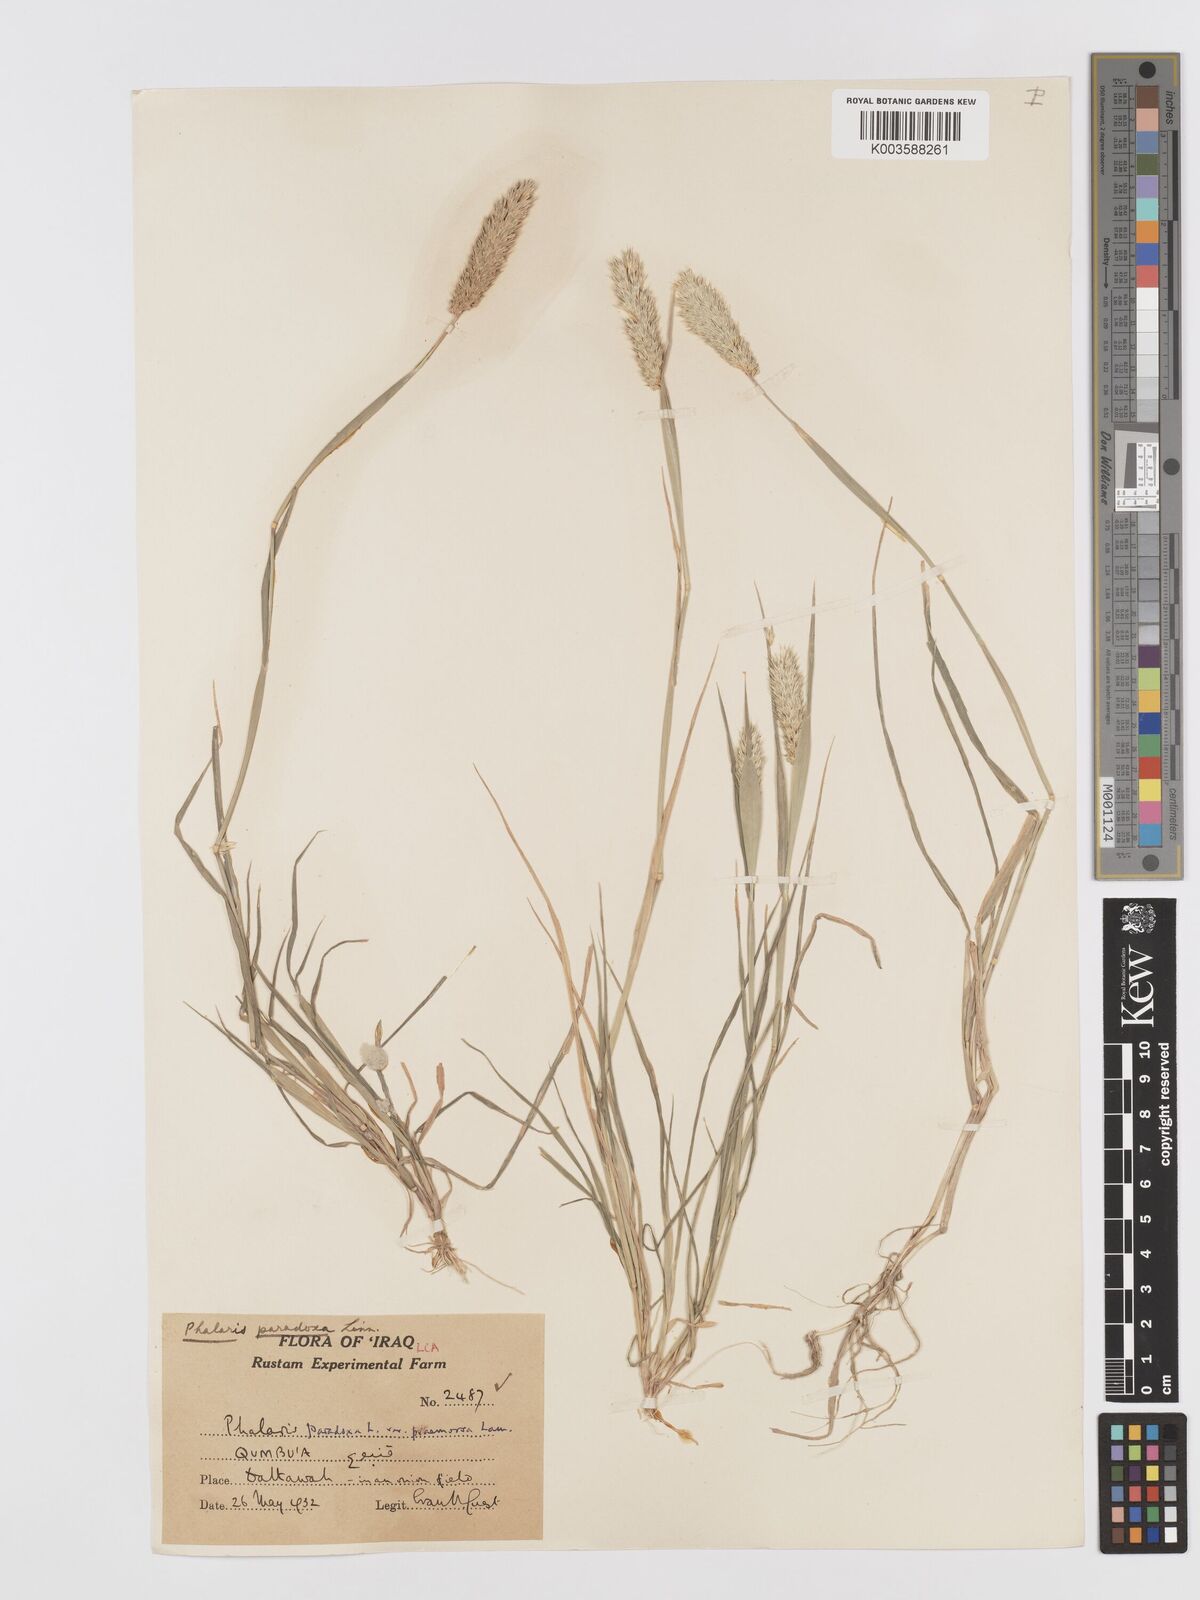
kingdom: Plantae
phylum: Tracheophyta
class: Liliopsida
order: Poales
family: Poaceae
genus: Phalaris
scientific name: Phalaris paradoxa
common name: Awned canary-grass
